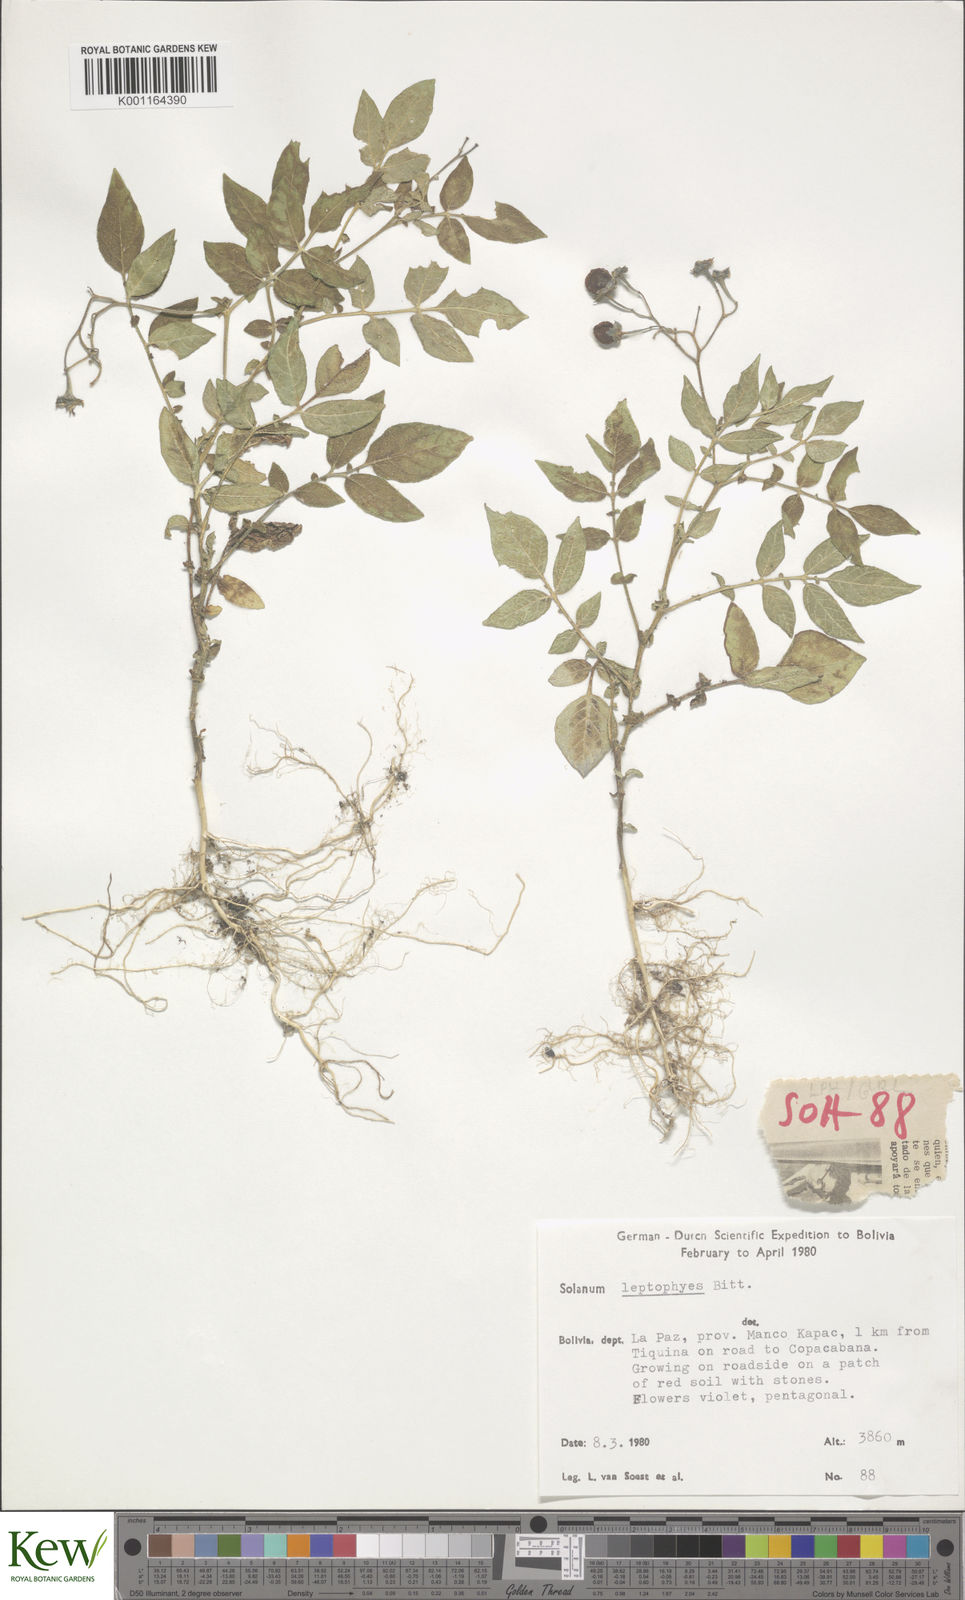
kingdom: Plantae
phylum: Tracheophyta
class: Magnoliopsida
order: Solanales
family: Solanaceae
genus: Solanum
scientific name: Solanum brevicaule
